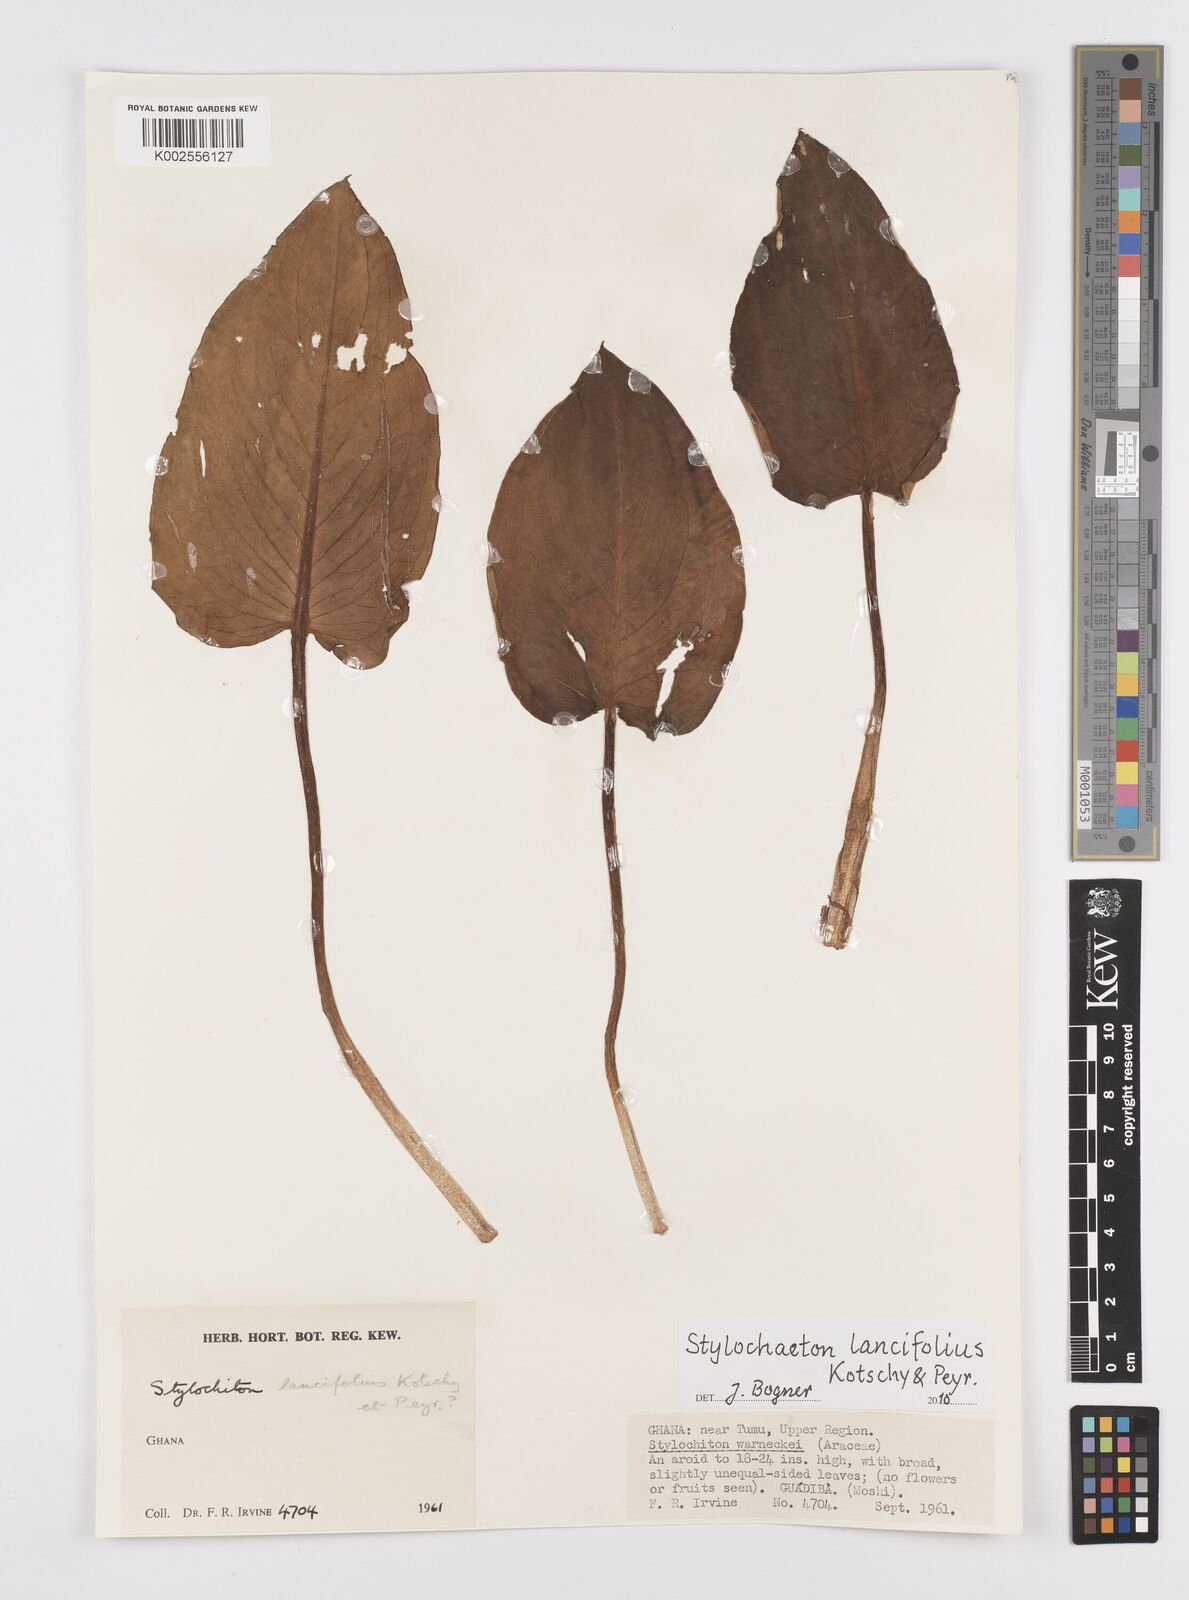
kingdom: Plantae
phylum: Tracheophyta
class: Liliopsida
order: Alismatales
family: Araceae
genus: Stylochaeton
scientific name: Stylochaeton lancifolium
